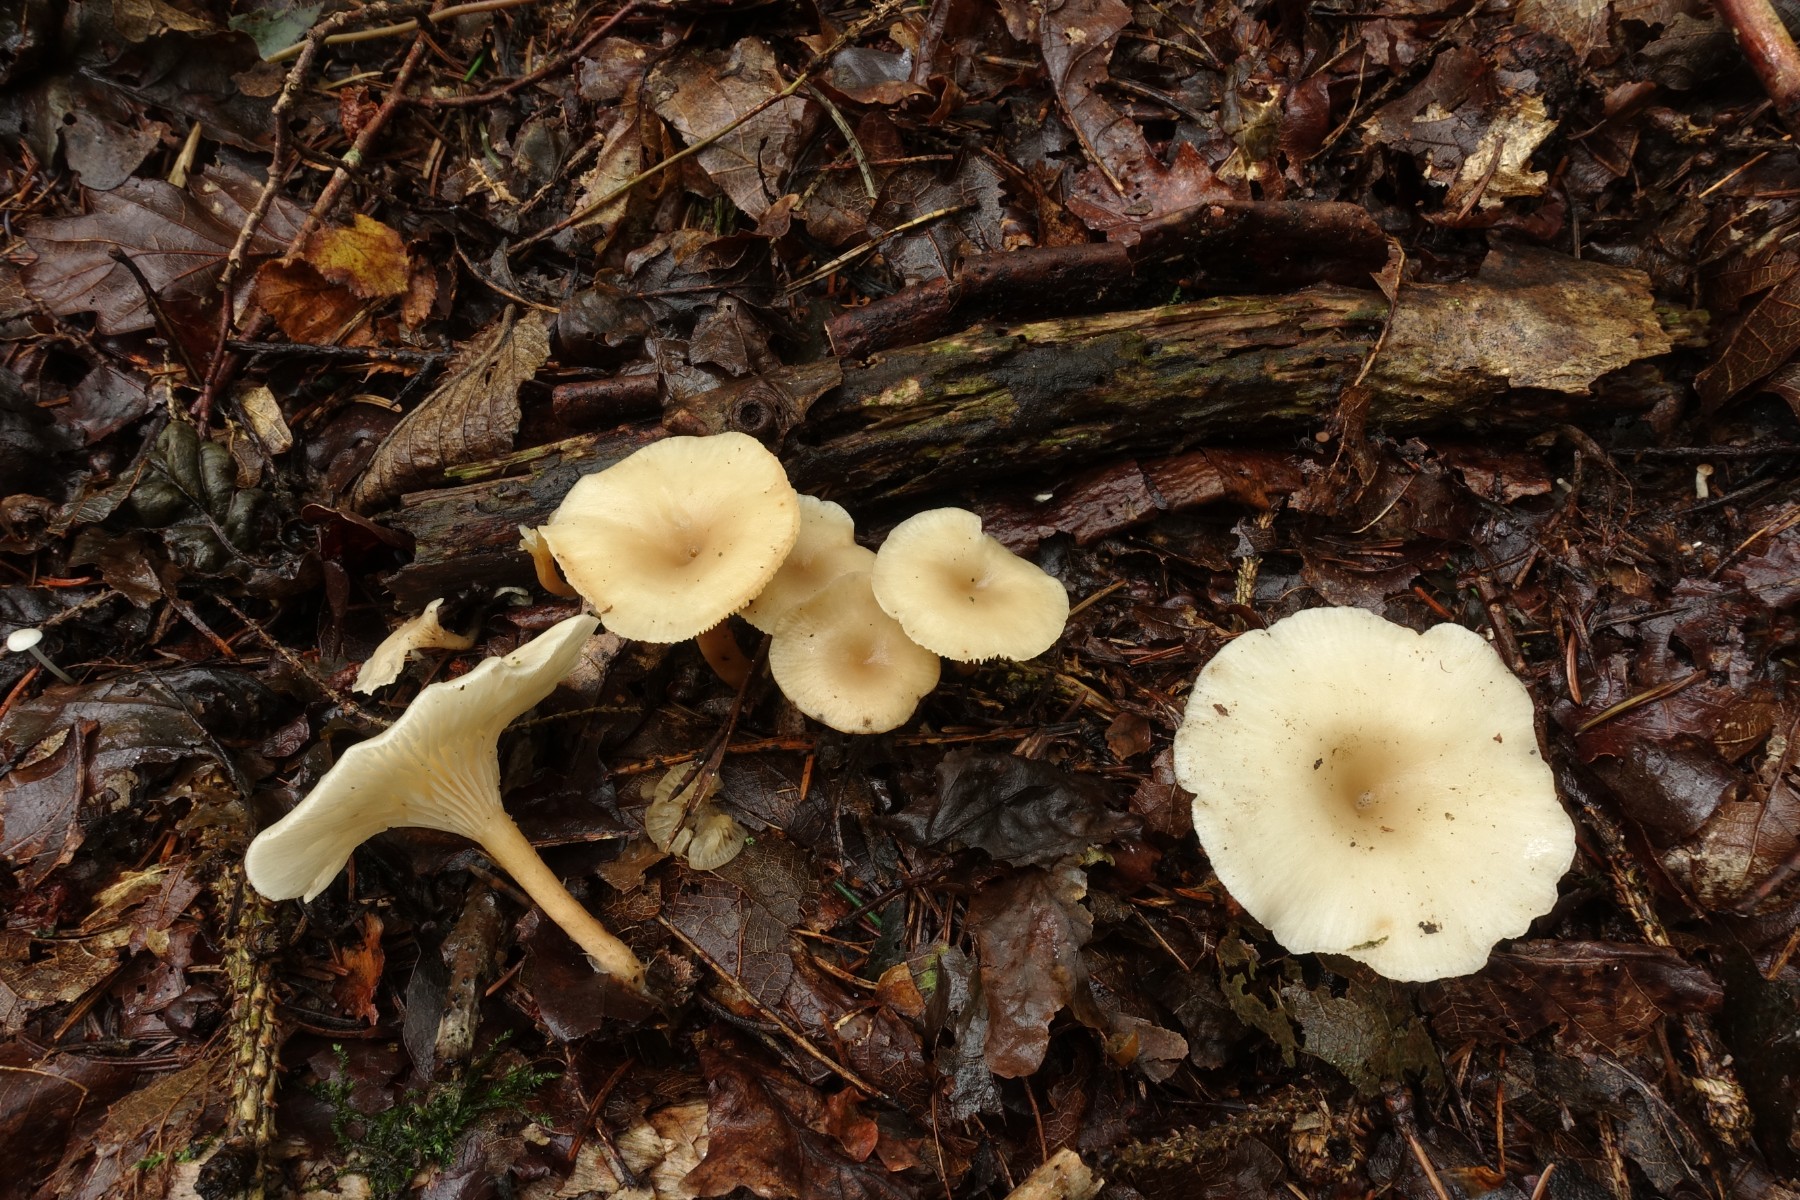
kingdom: Fungi
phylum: Basidiomycota
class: Agaricomycetes
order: Agaricales
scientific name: Agaricales
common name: champignonordenen
